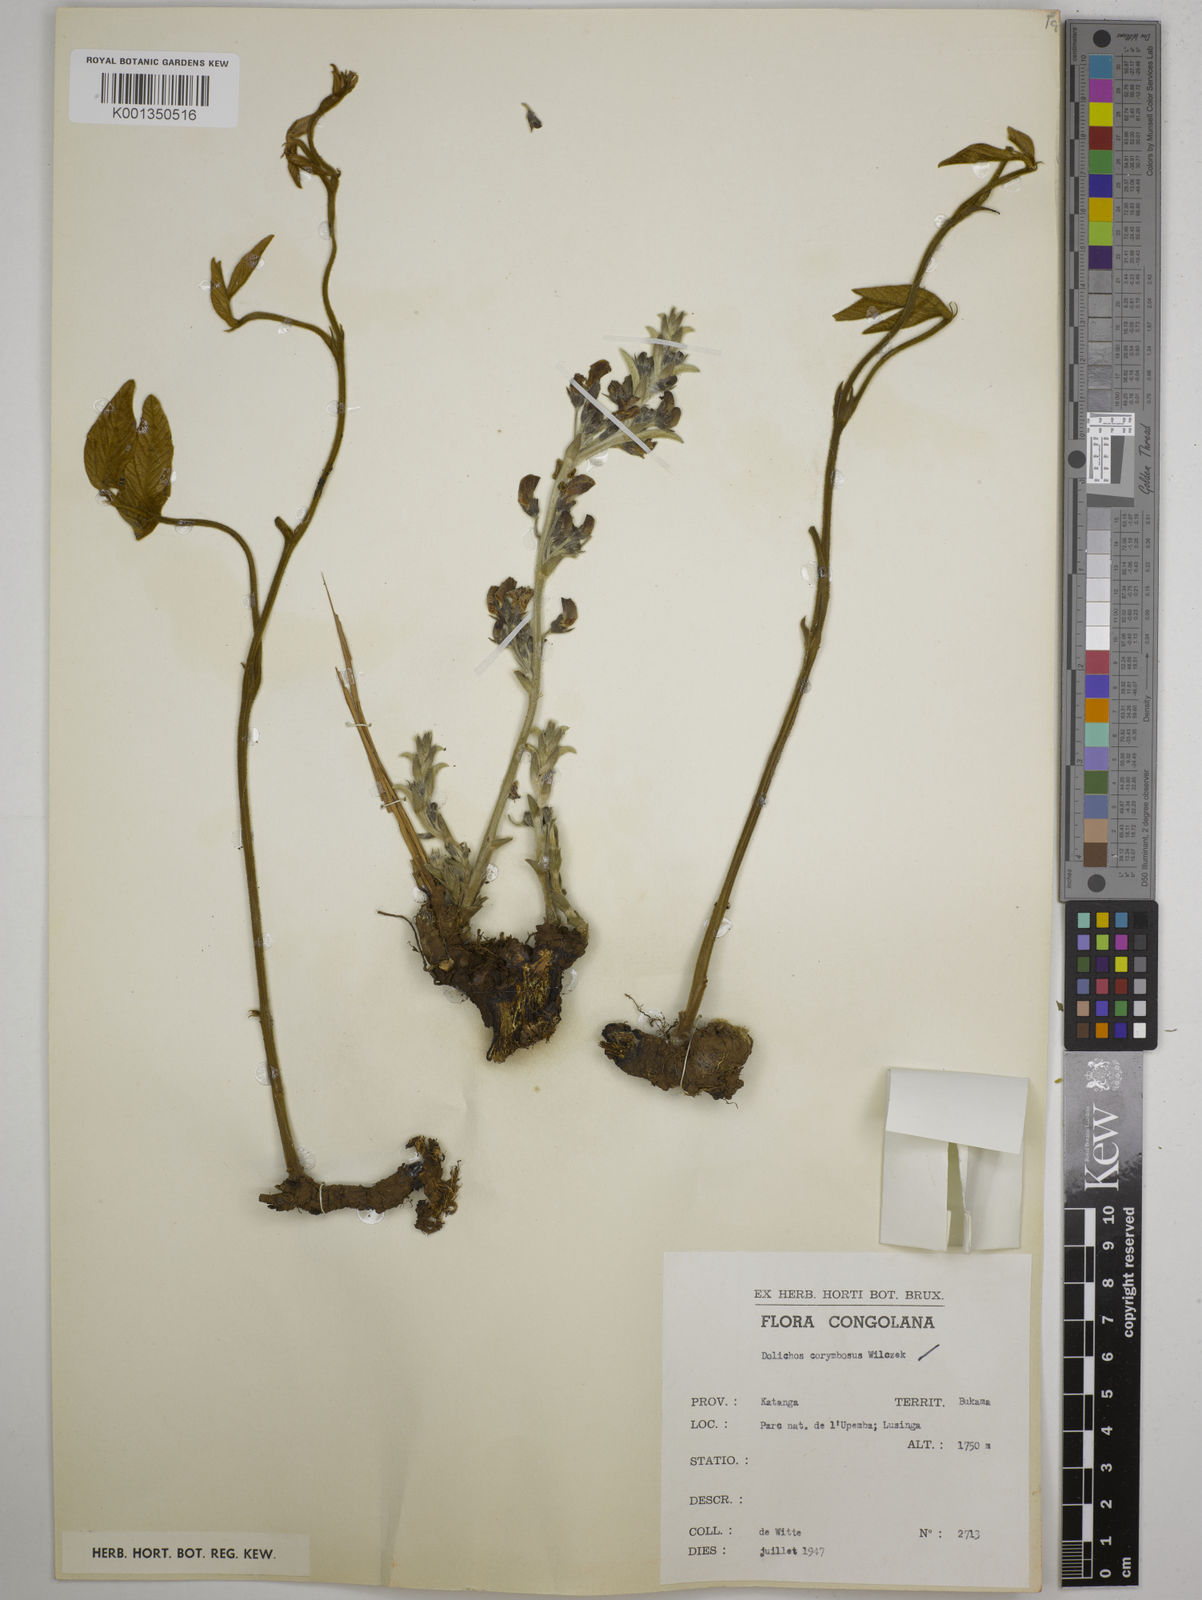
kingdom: Plantae
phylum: Tracheophyta
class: Magnoliopsida
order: Fabales
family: Fabaceae
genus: Dolichos
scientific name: Dolichos corymbosus
